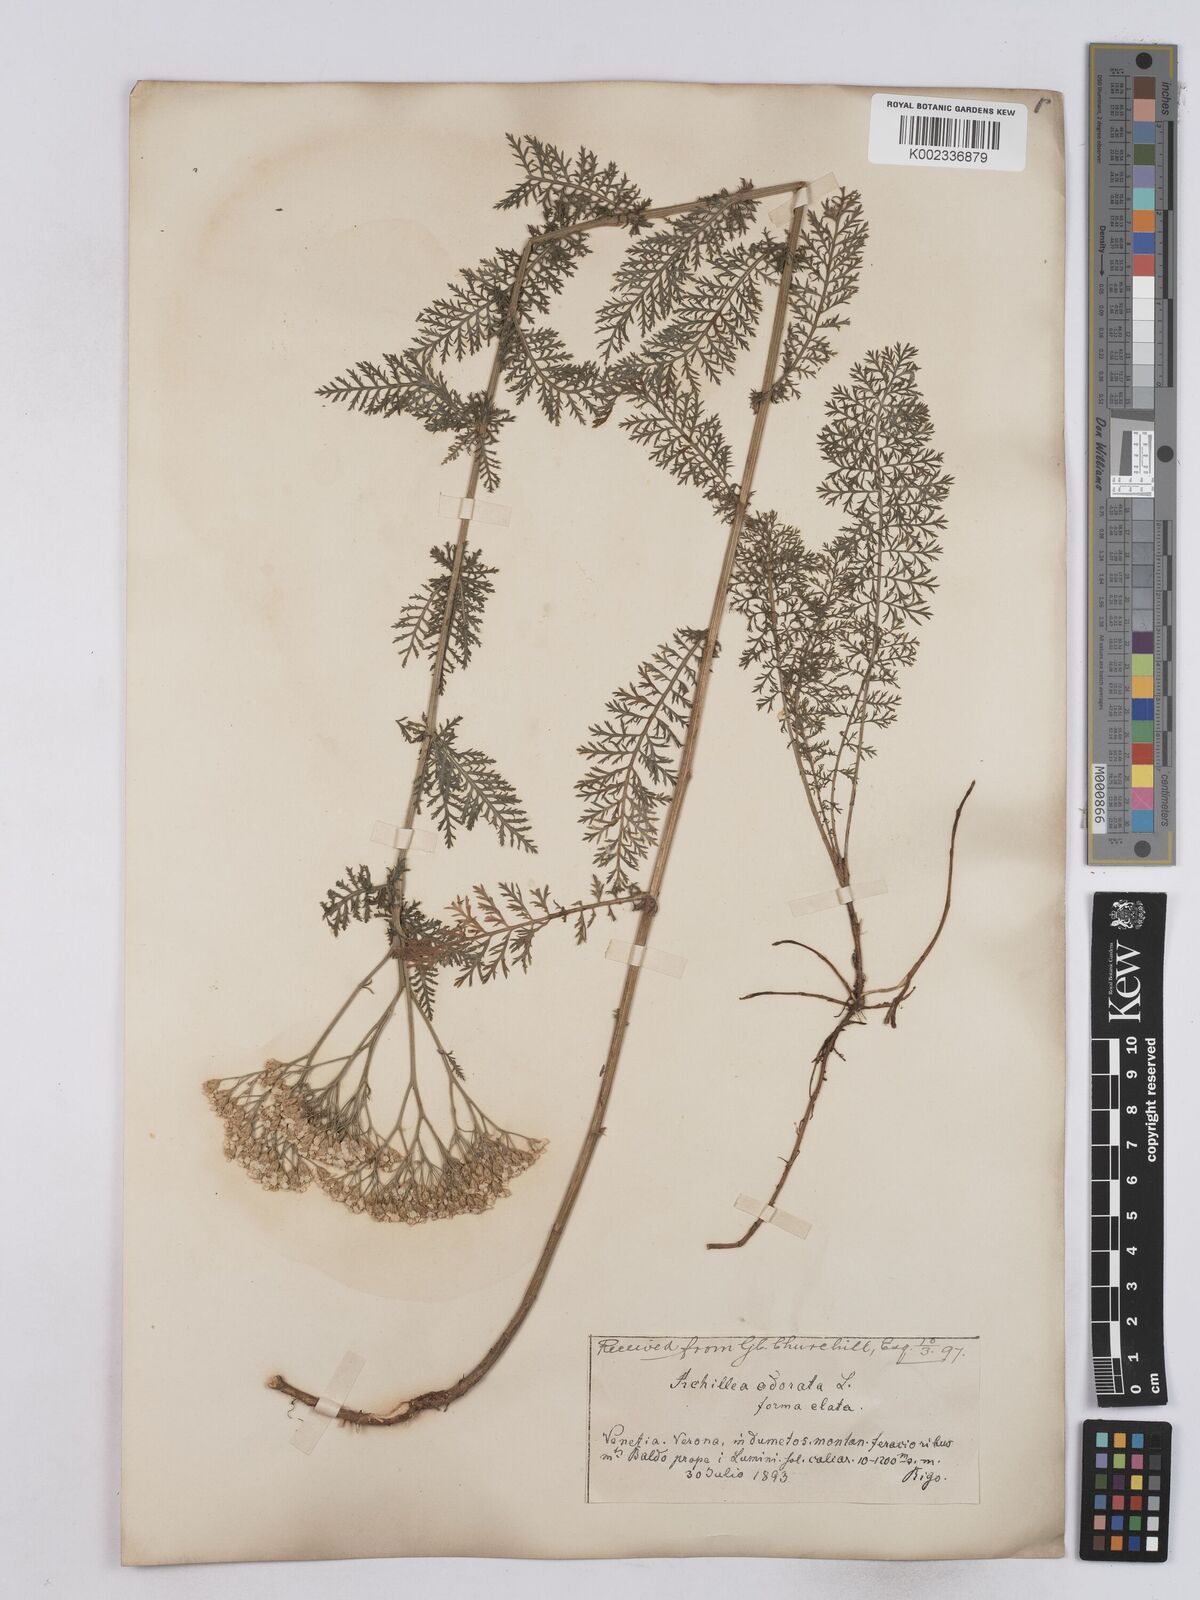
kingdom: Plantae
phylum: Tracheophyta
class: Magnoliopsida
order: Asterales
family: Asteraceae
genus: Achillea
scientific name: Achillea odorata
